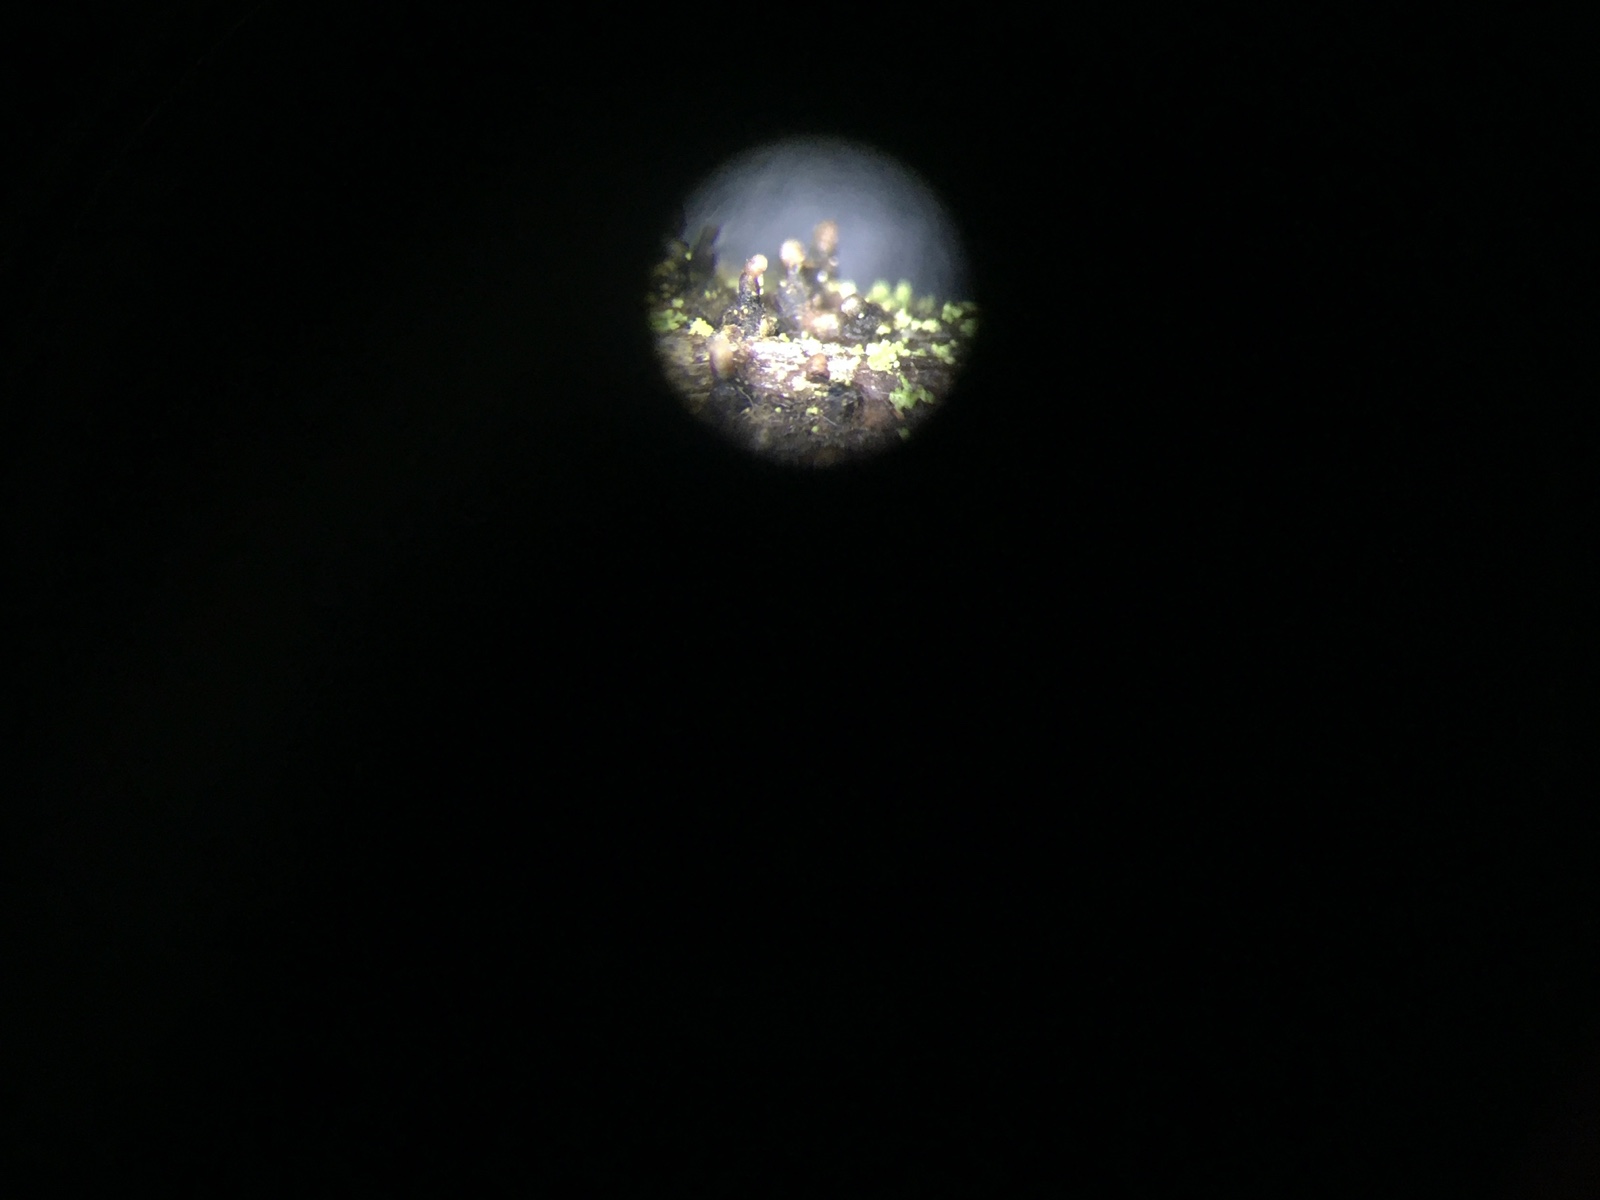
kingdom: Fungi
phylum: Ascomycota
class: Leotiomycetes
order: Helotiales
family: Dermateaceae
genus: Dermea
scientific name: Dermea ariae
